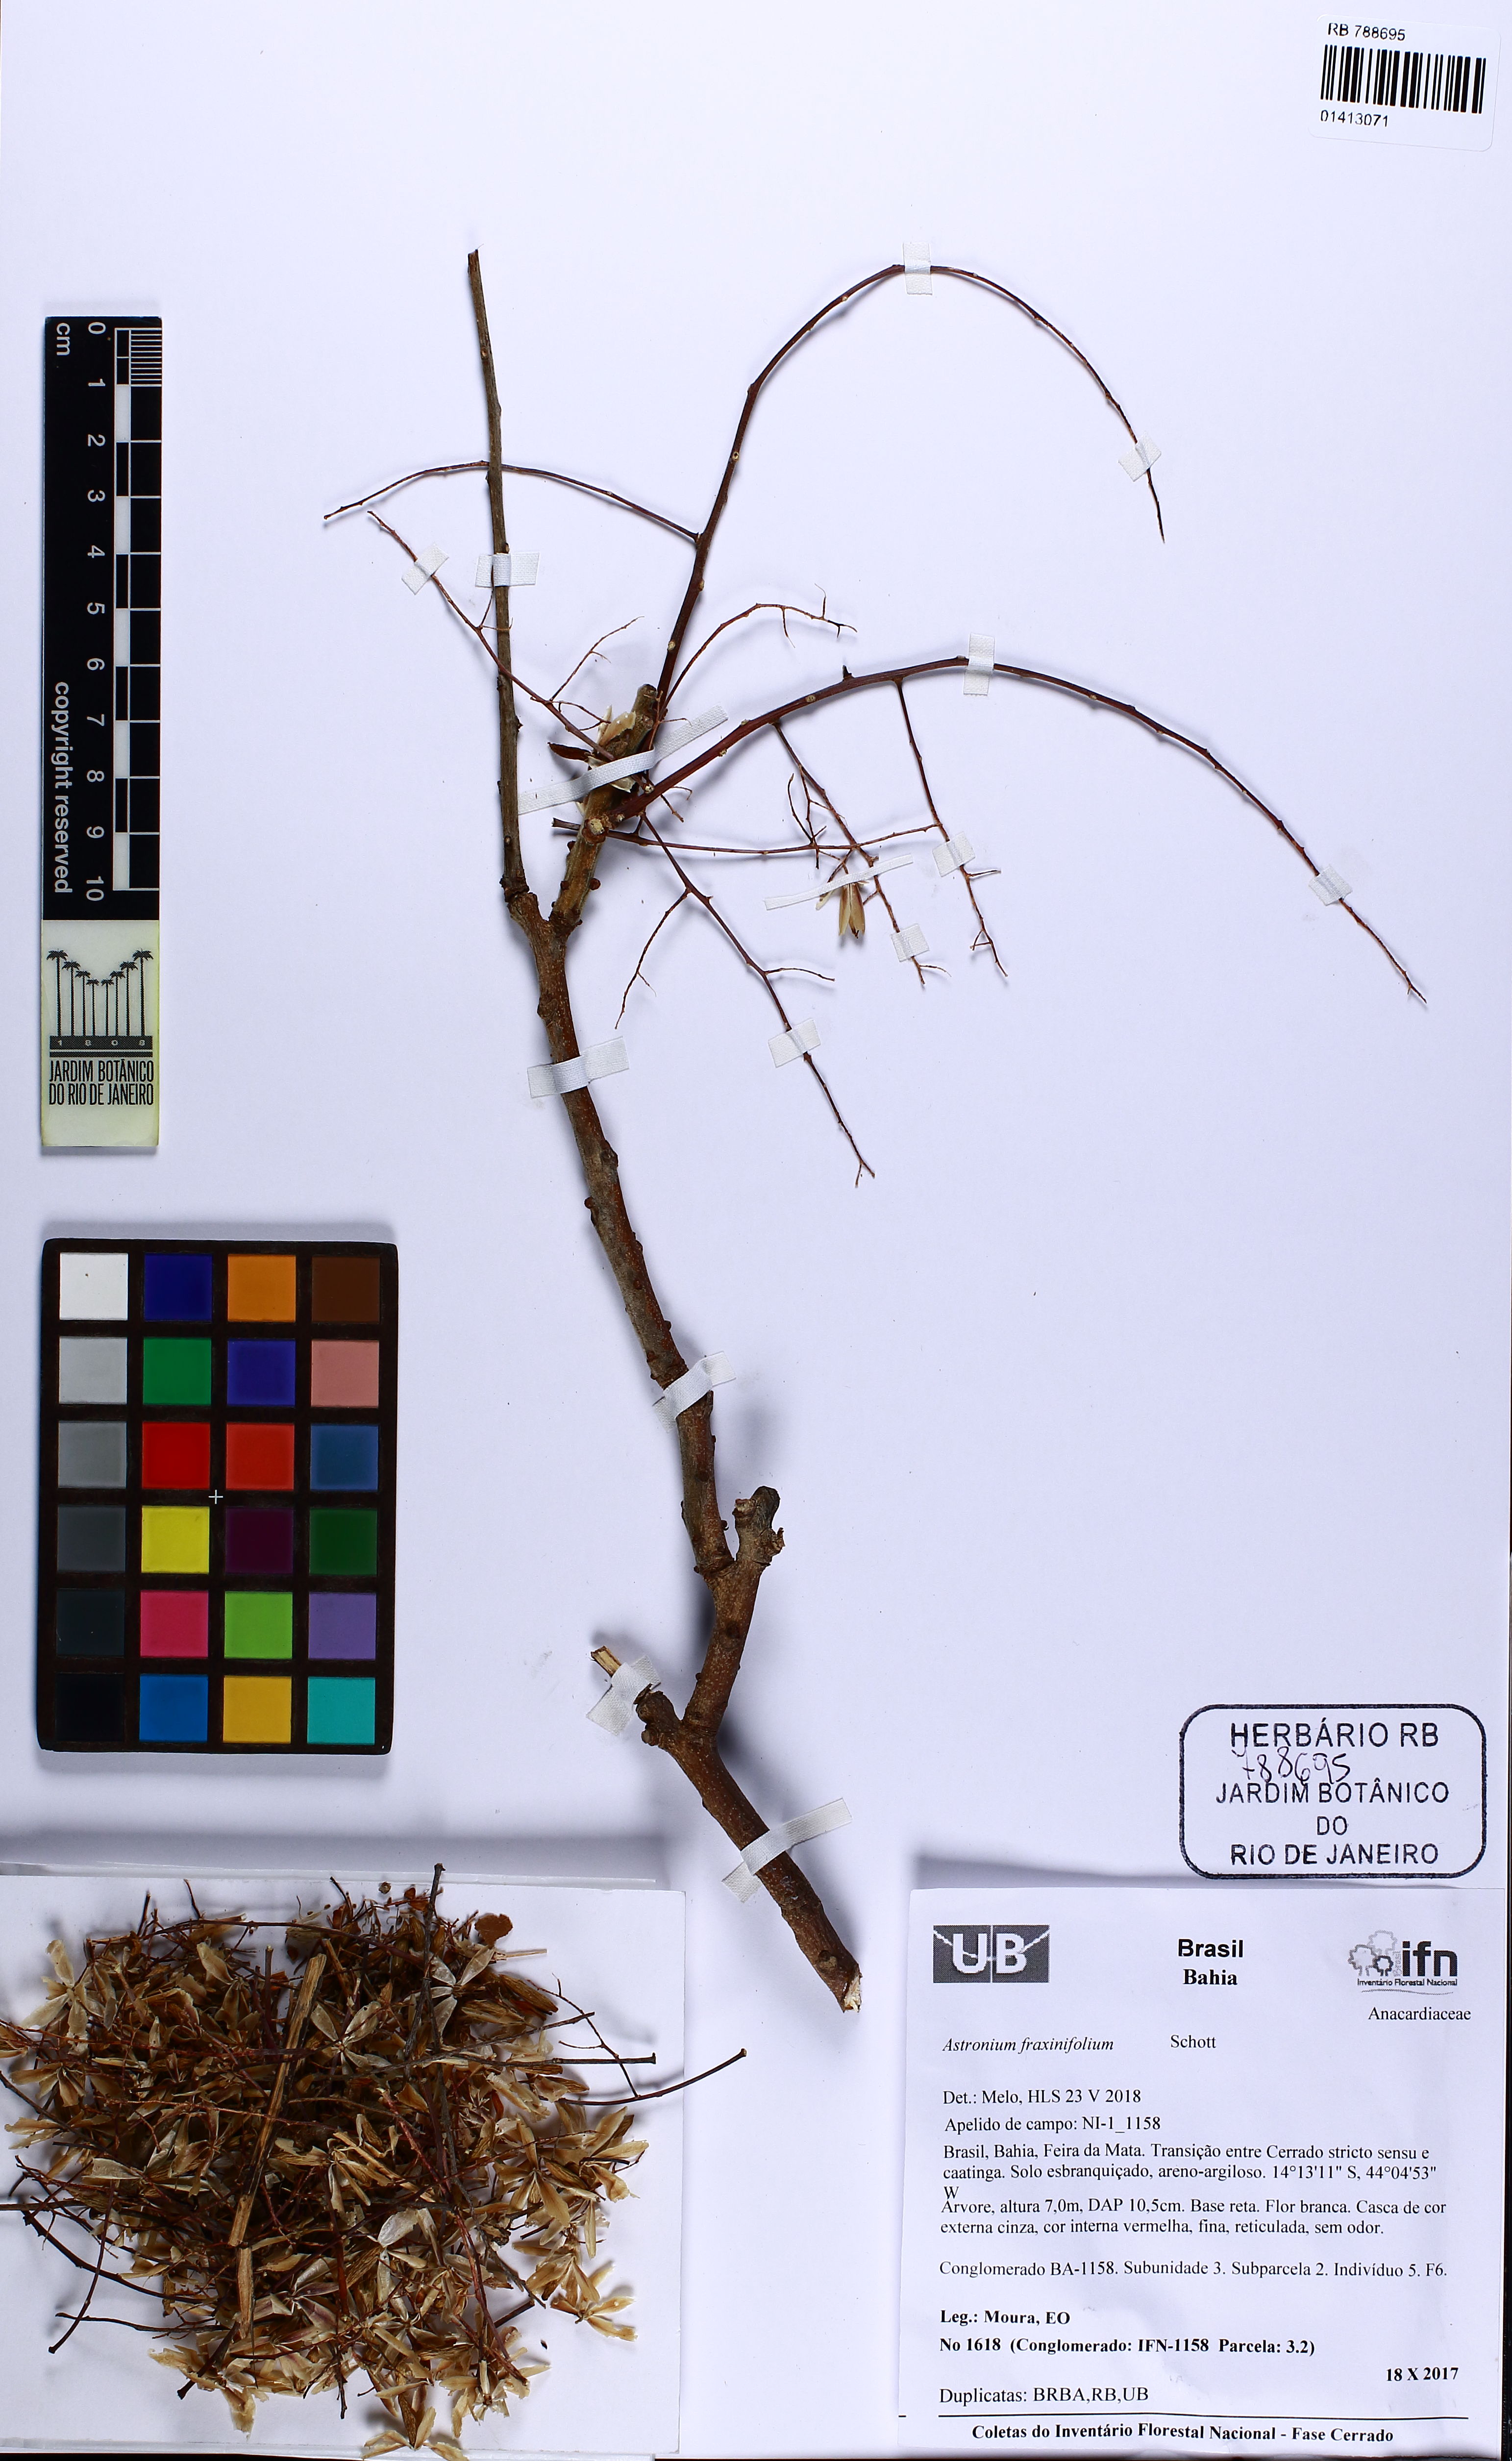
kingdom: Plantae
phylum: Tracheophyta
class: Magnoliopsida
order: Sapindales
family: Anacardiaceae
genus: Astronium
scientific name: Astronium fraxinifolium
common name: Tigerwood
